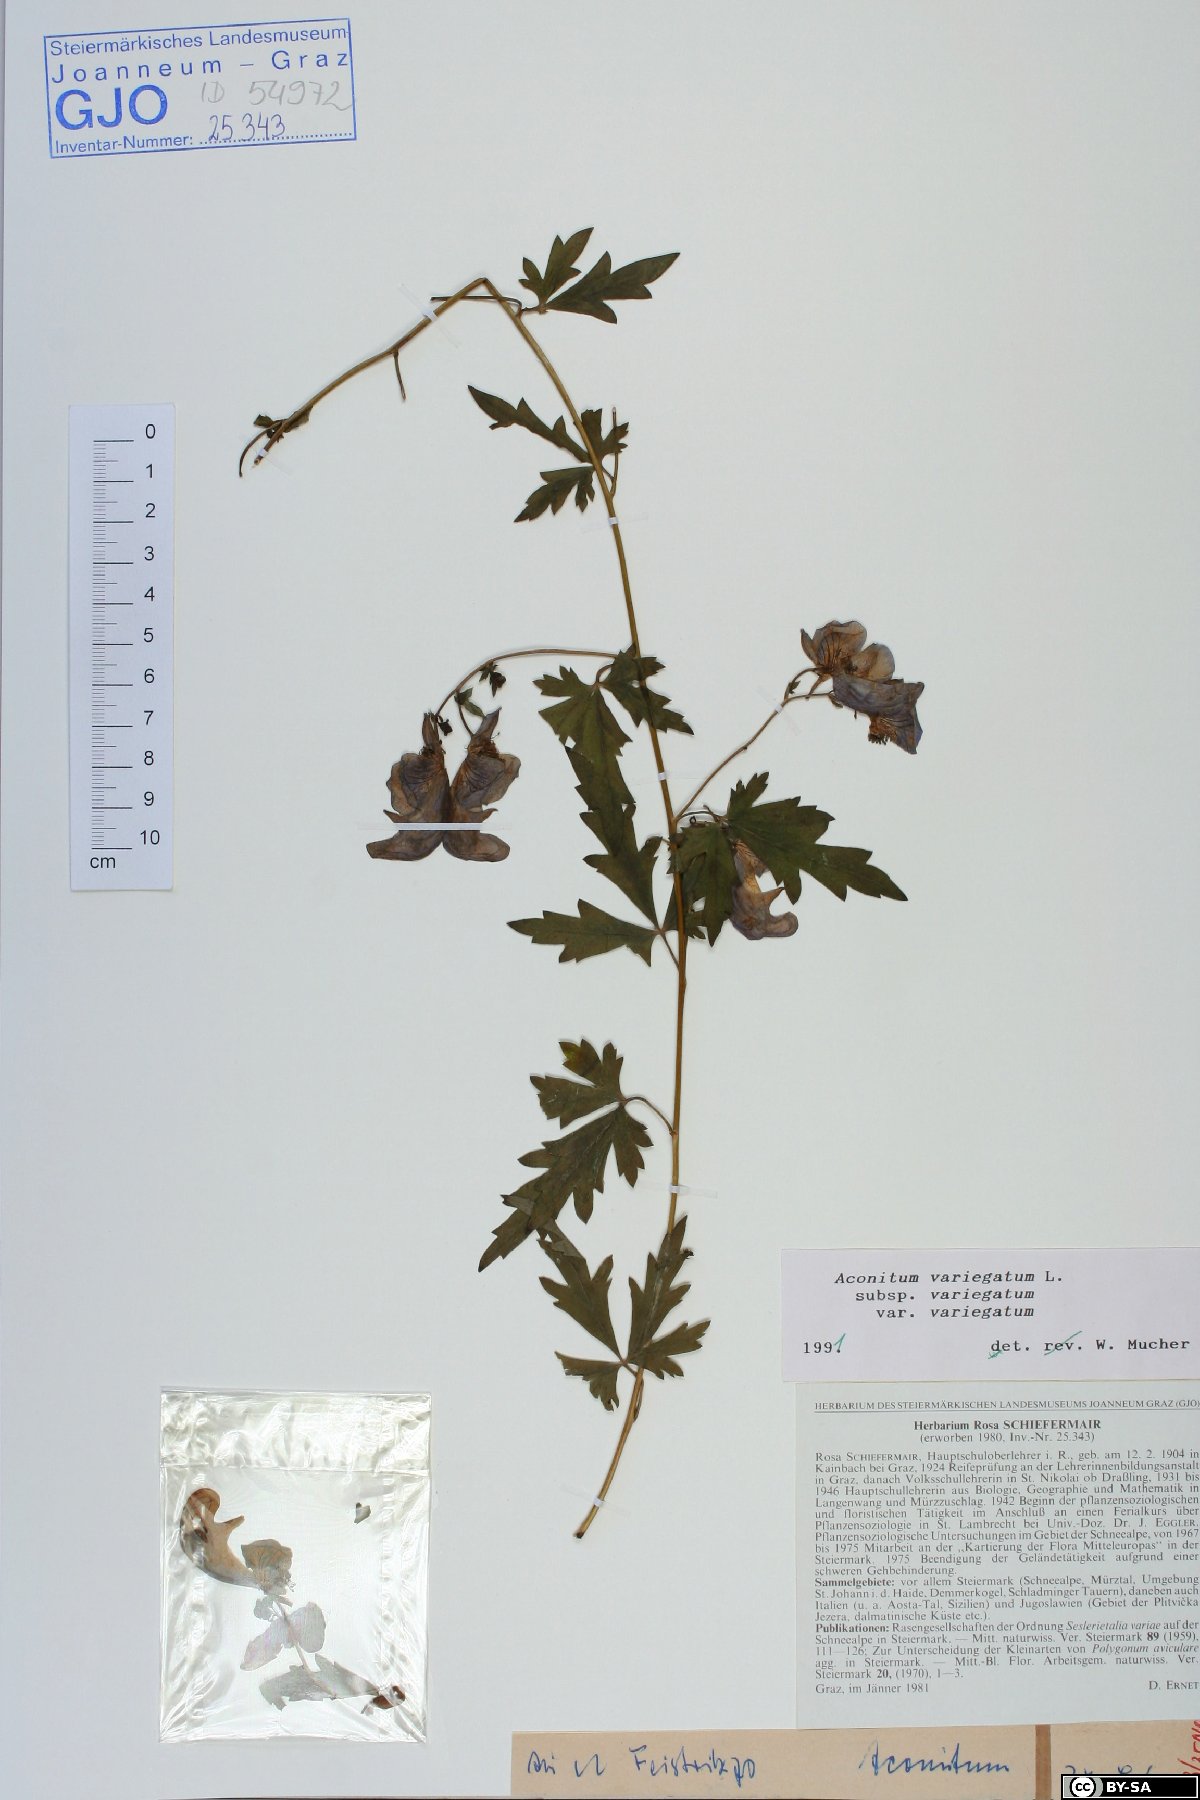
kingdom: Plantae
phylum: Tracheophyta
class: Magnoliopsida
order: Ranunculales
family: Ranunculaceae
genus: Aconitum
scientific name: Aconitum variegatum
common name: Manchurian monkshood
